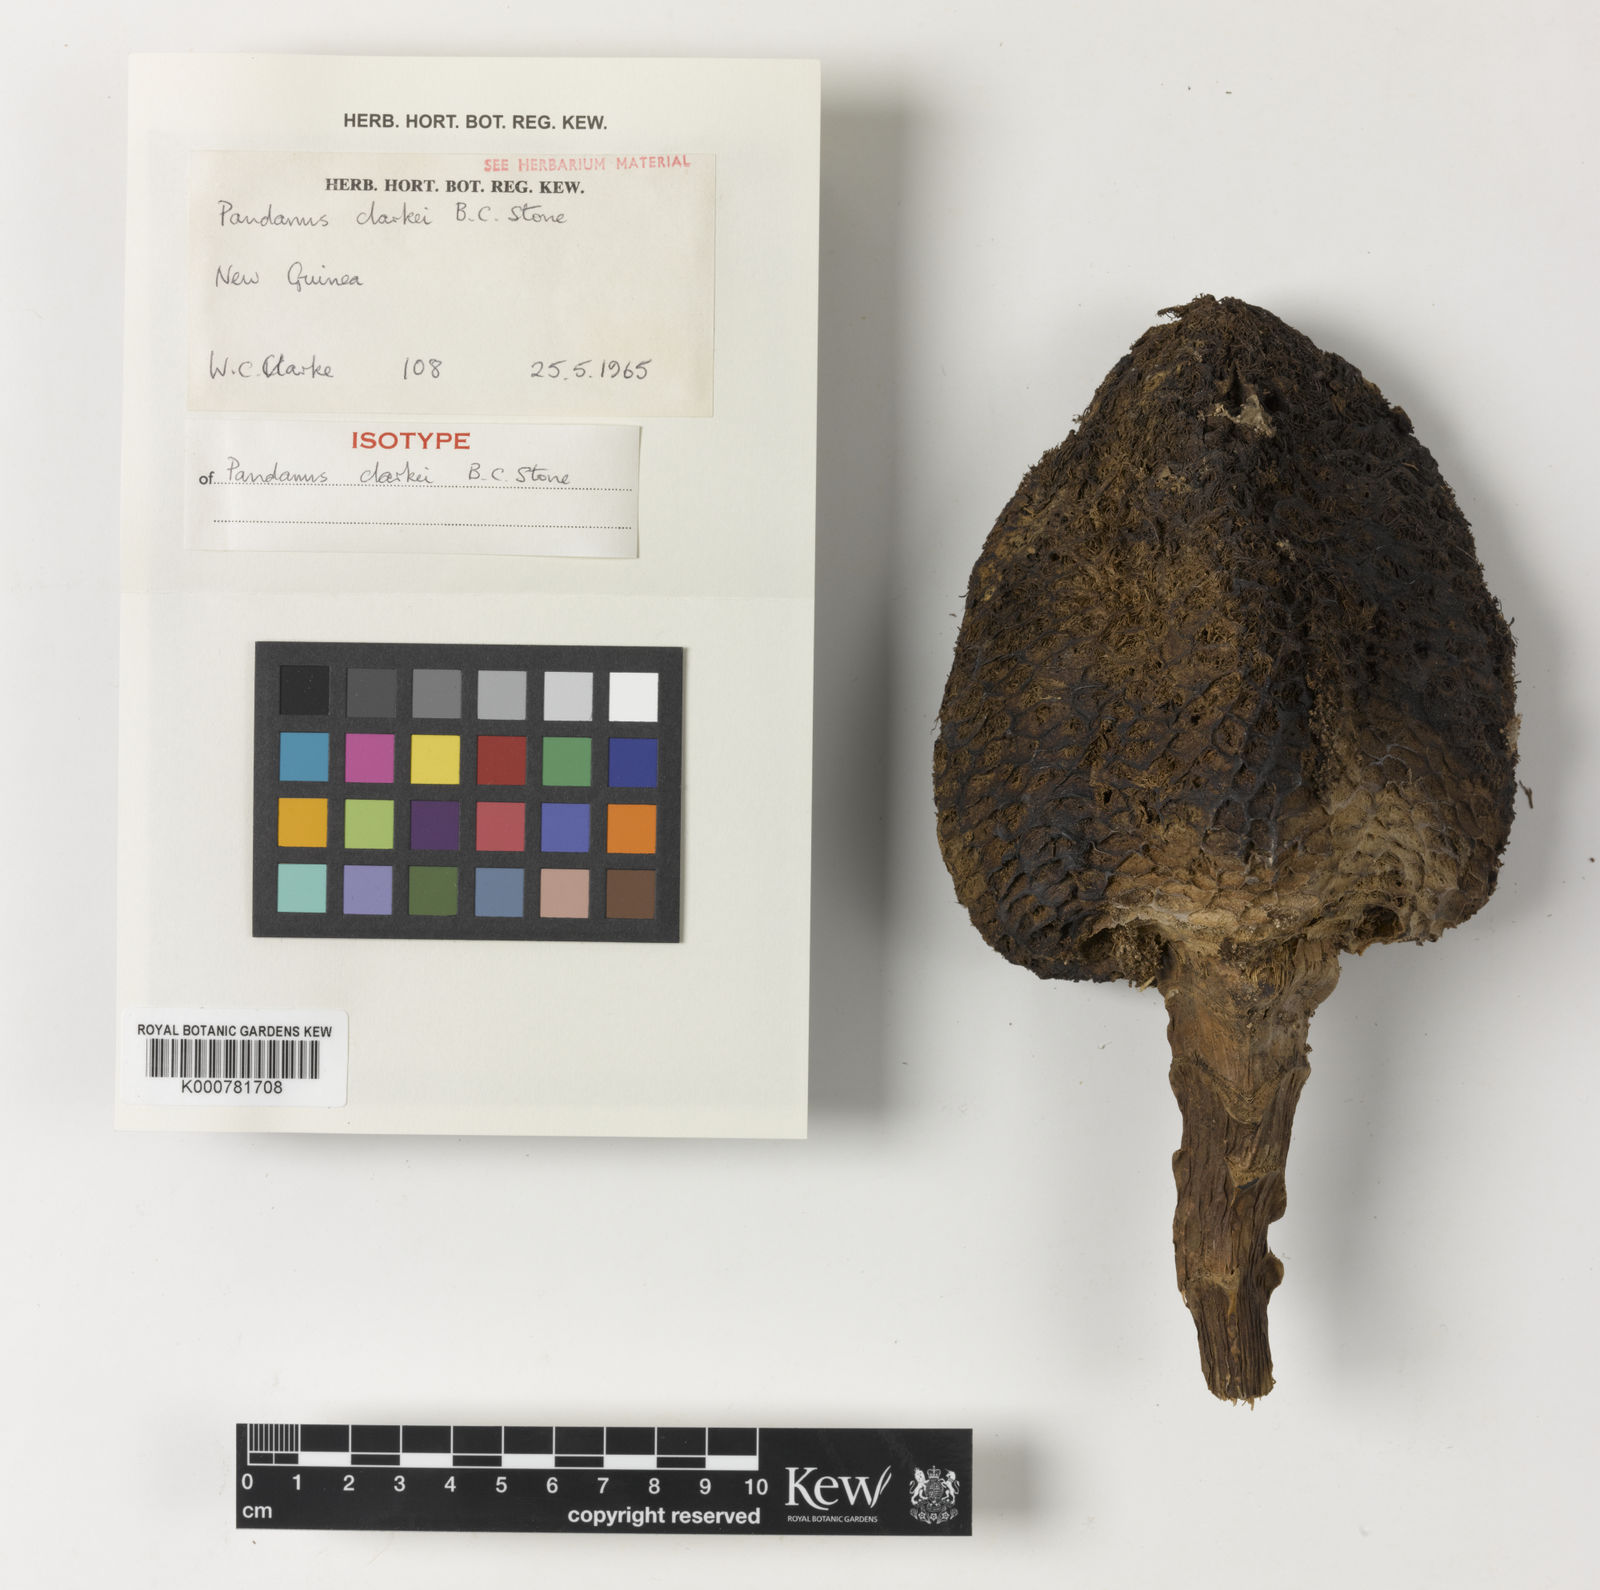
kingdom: Plantae
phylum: Tracheophyta
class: Liliopsida
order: Pandanales
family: Pandanaceae
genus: Pandanus
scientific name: Pandanus clarkei
